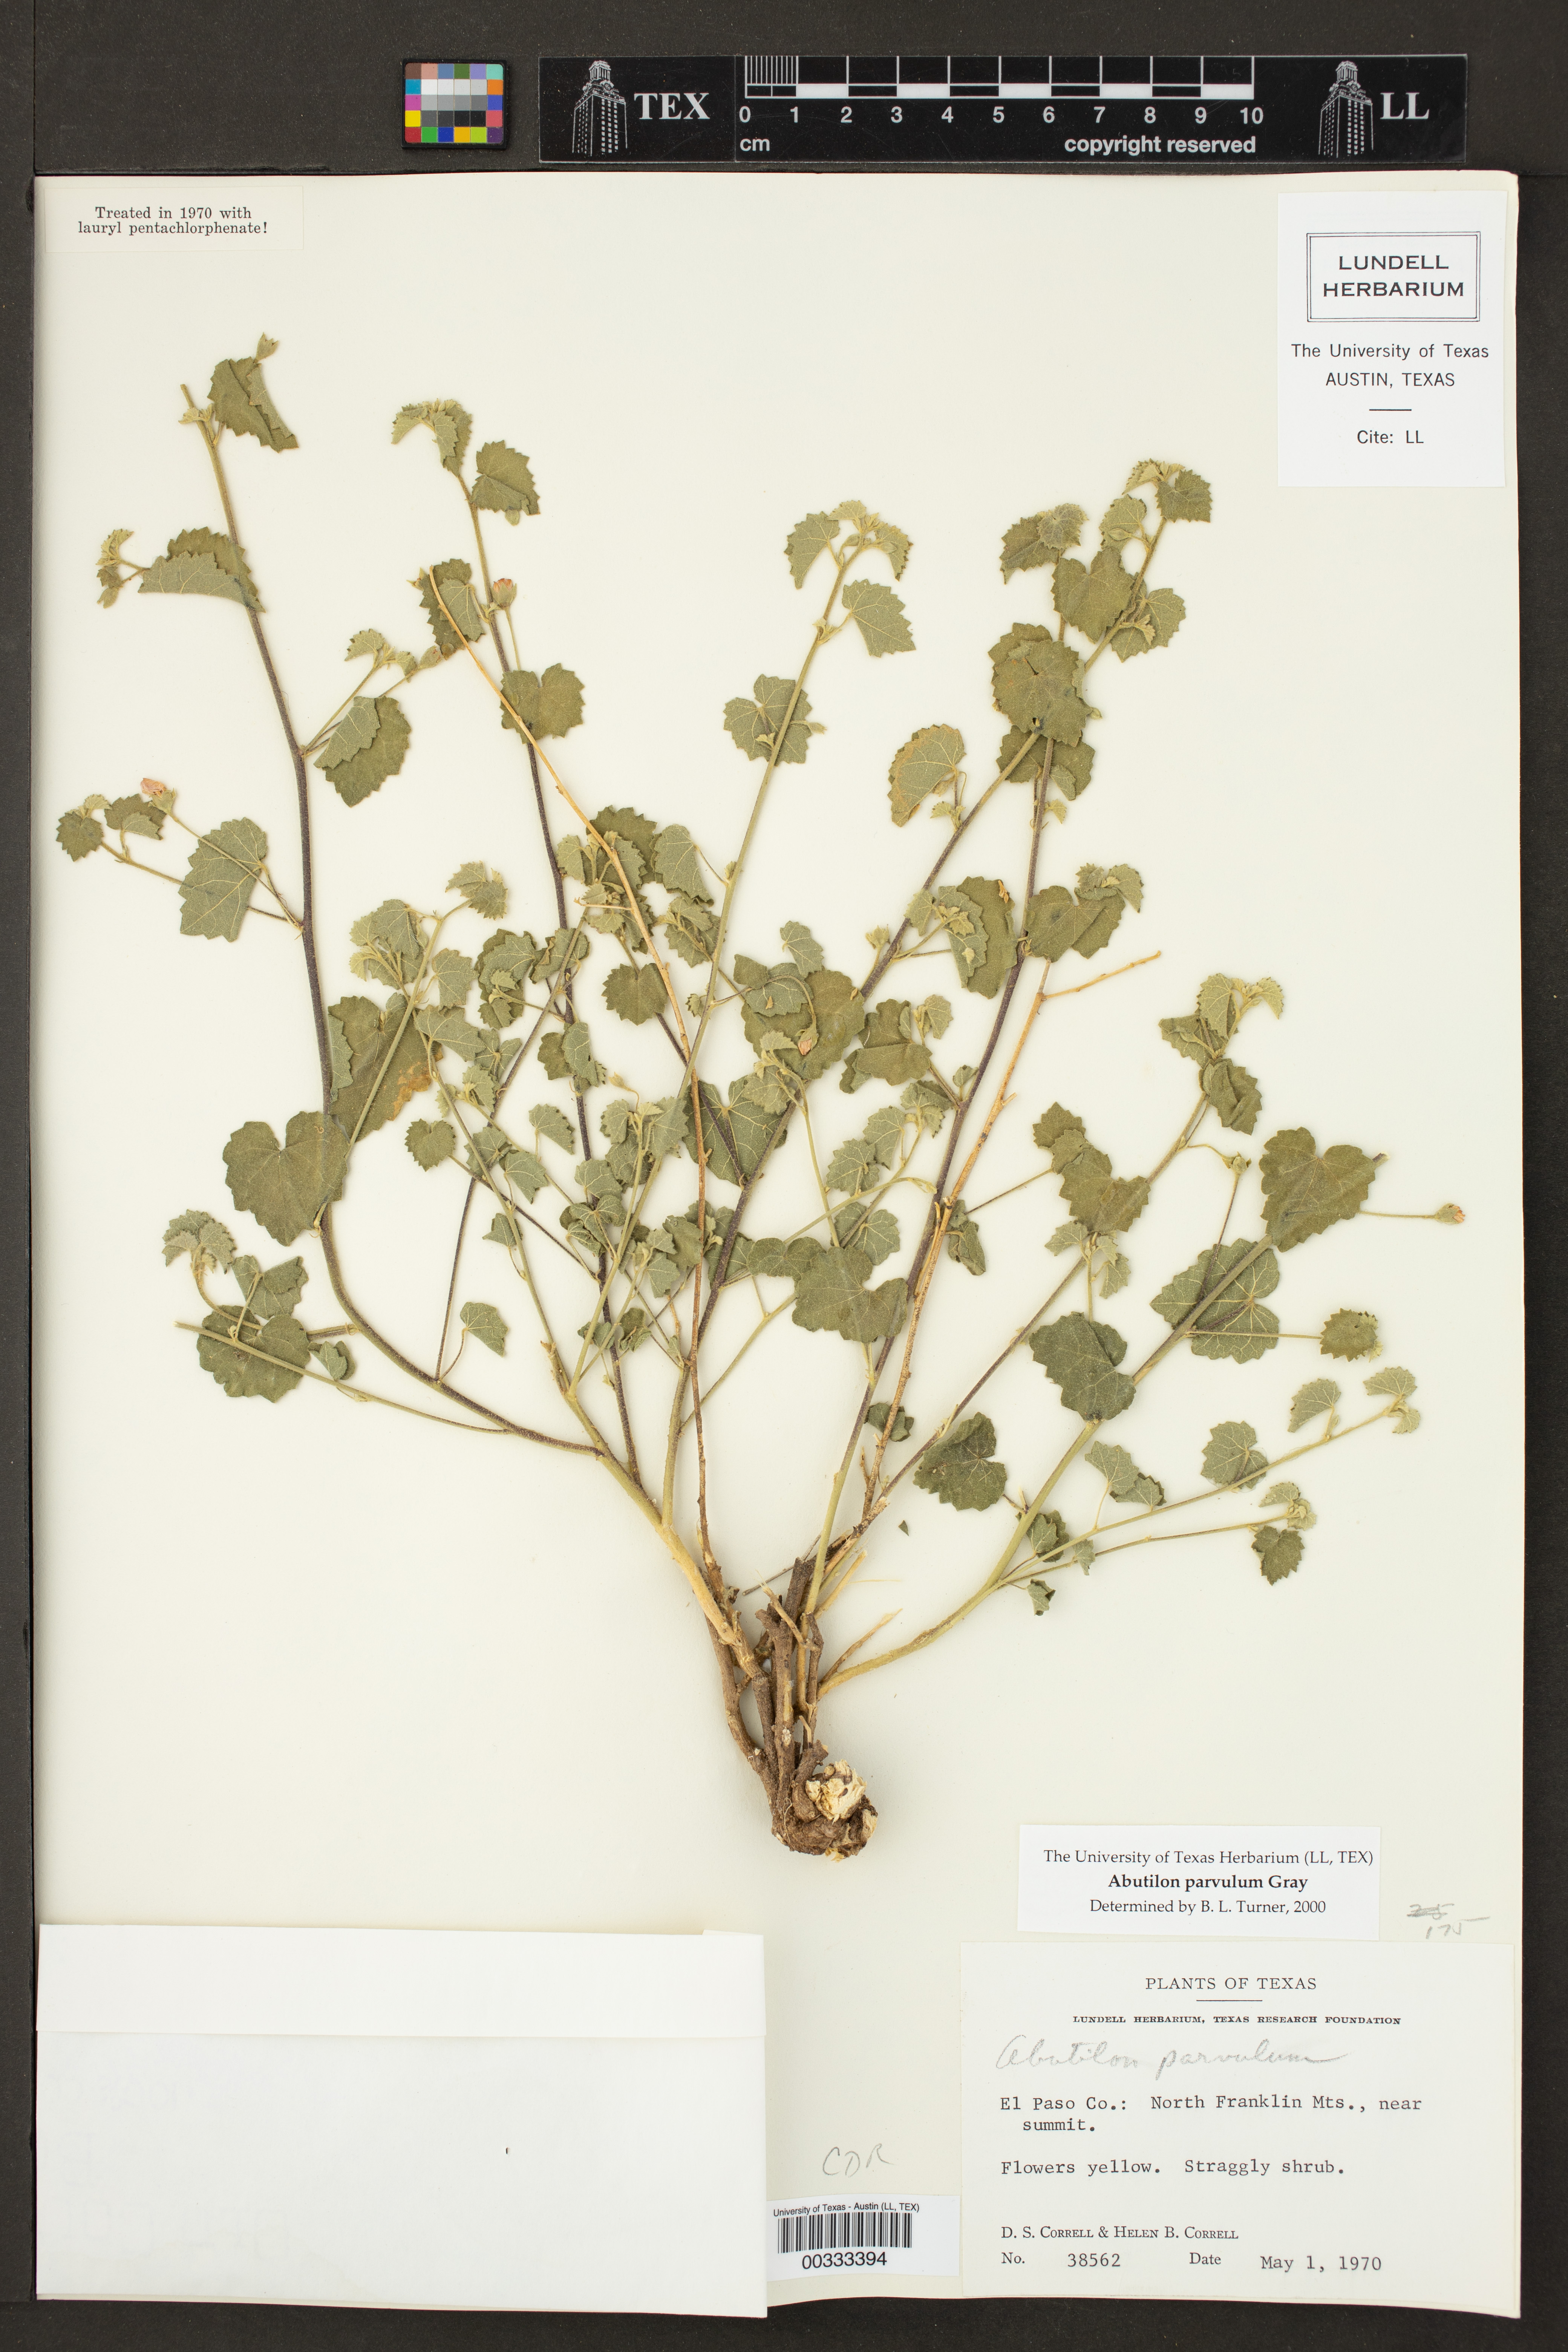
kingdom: Plantae
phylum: Tracheophyta
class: Magnoliopsida
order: Malvales
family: Malvaceae
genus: Abutilon
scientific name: Abutilon parvulum
